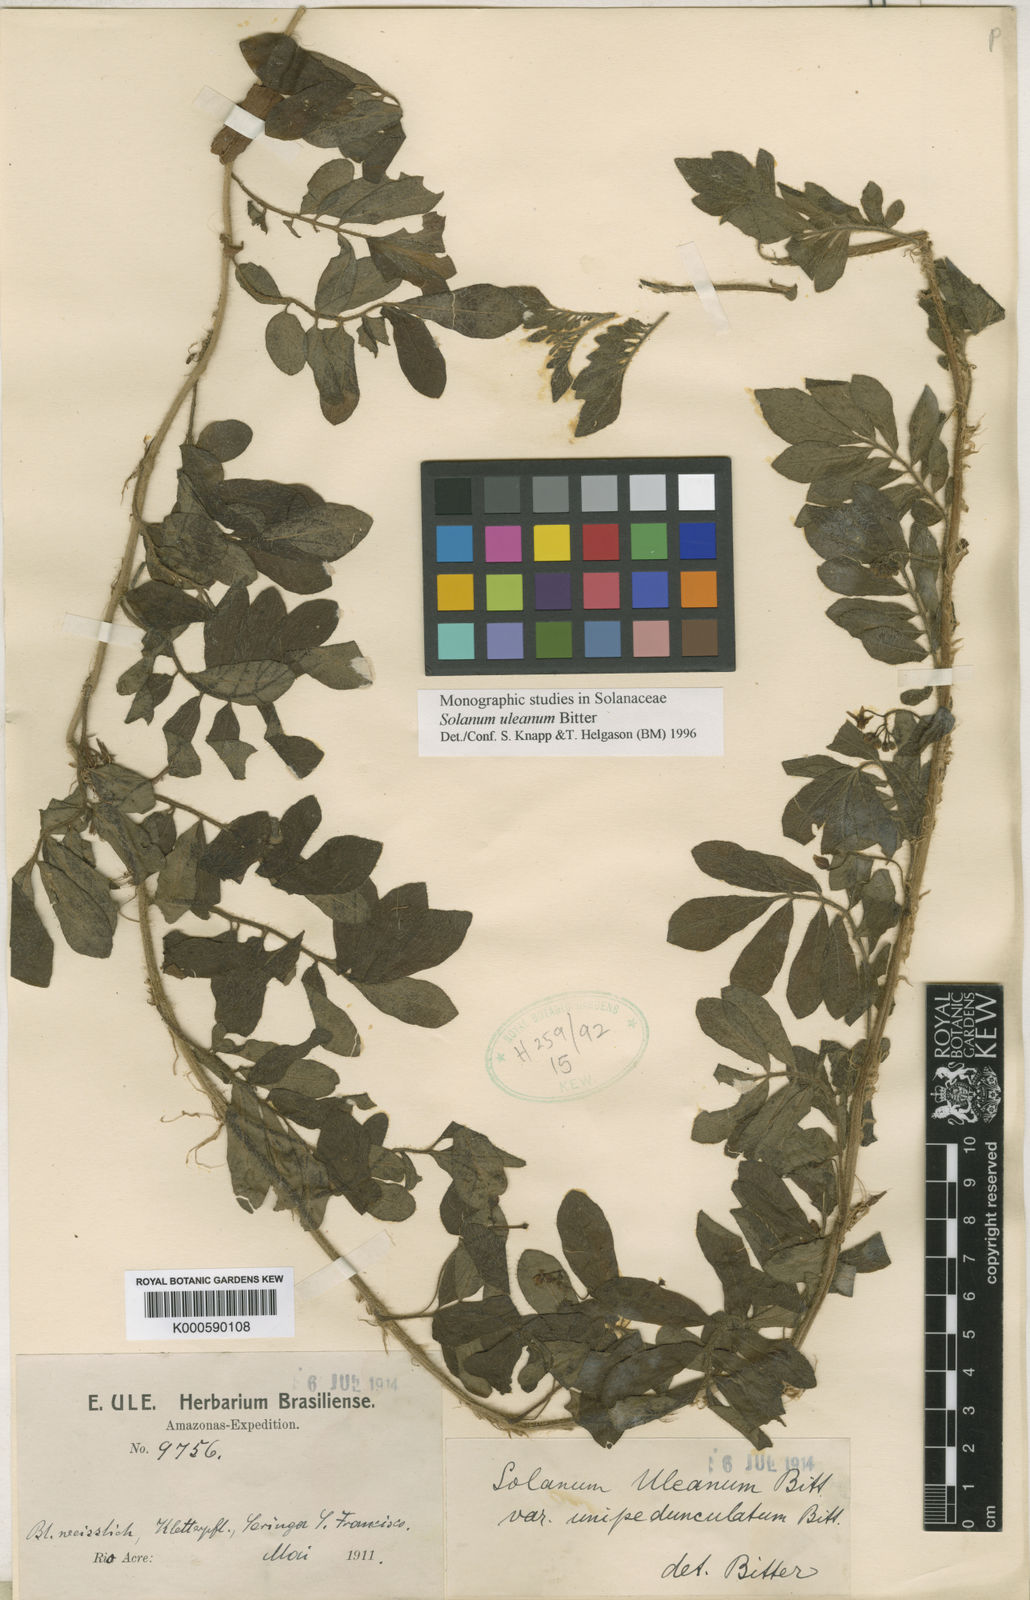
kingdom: Plantae
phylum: Tracheophyta
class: Magnoliopsida
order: Solanales
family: Solanaceae
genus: Solanum
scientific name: Solanum uleanum
